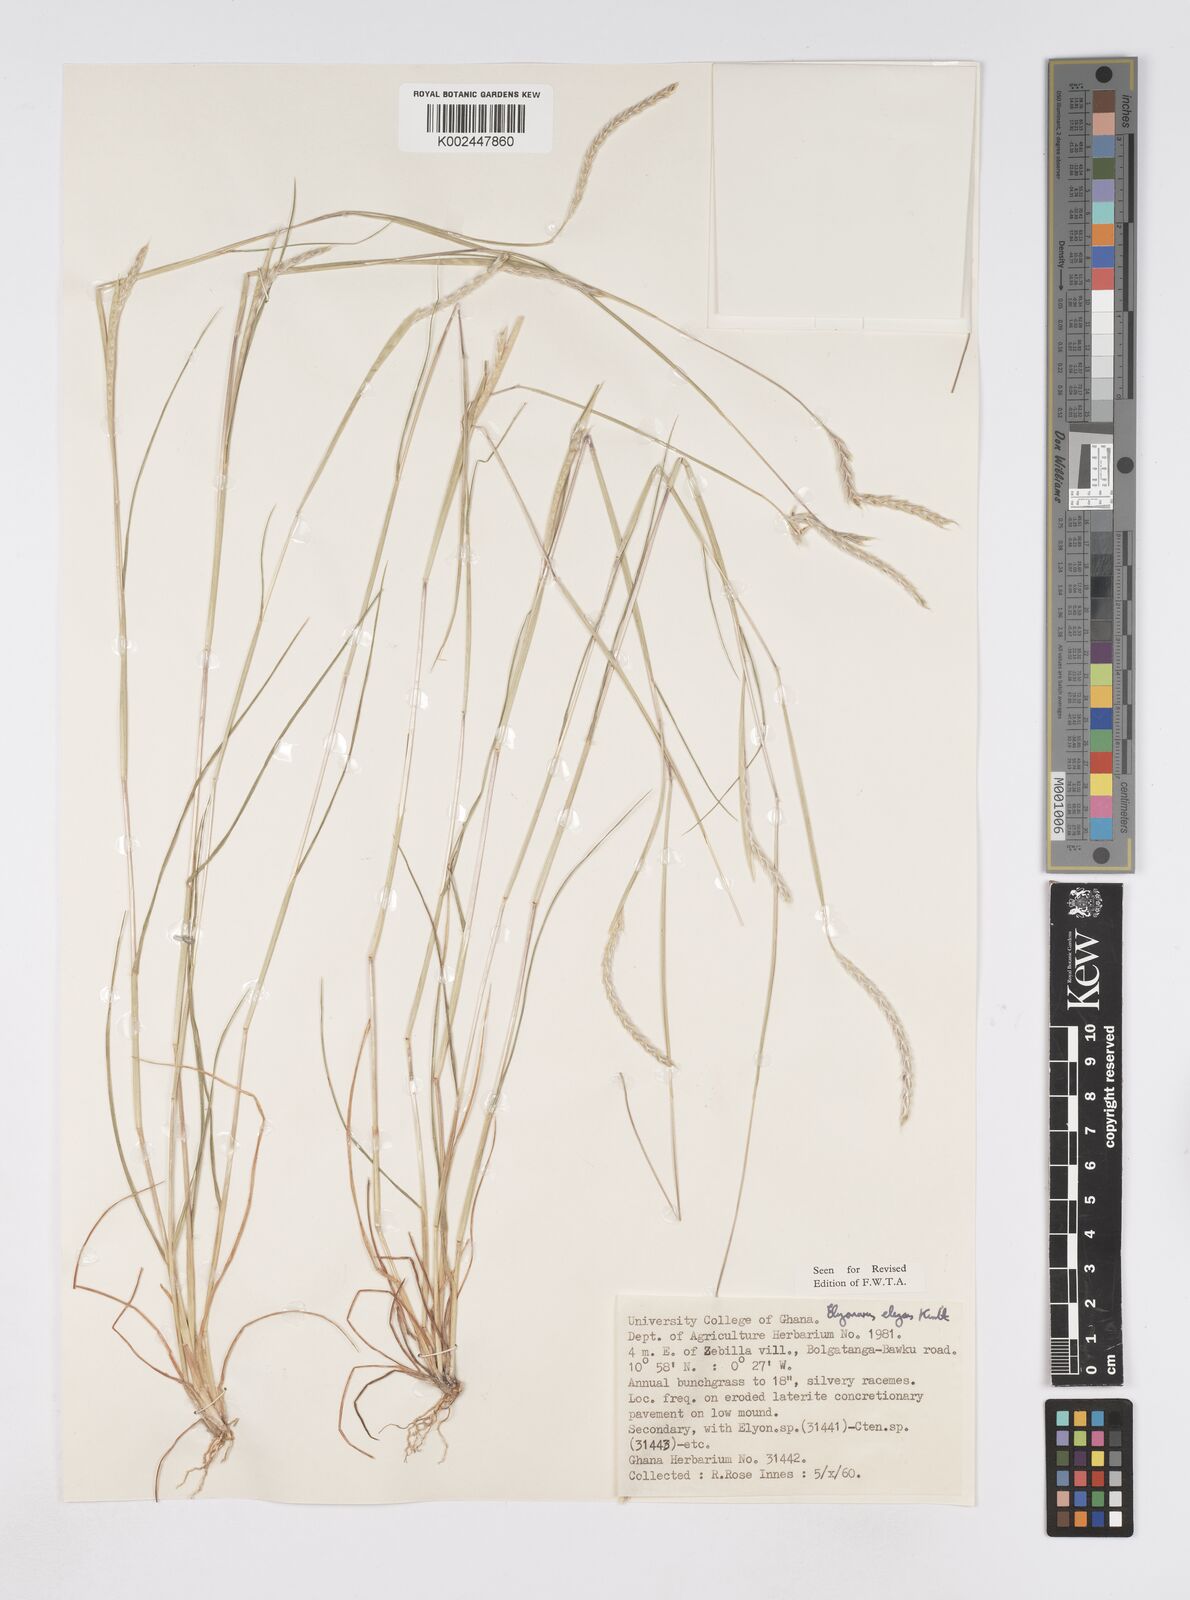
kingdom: Plantae
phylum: Tracheophyta
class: Liliopsida
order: Poales
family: Poaceae
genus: Elionurus
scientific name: Elionurus elegans
